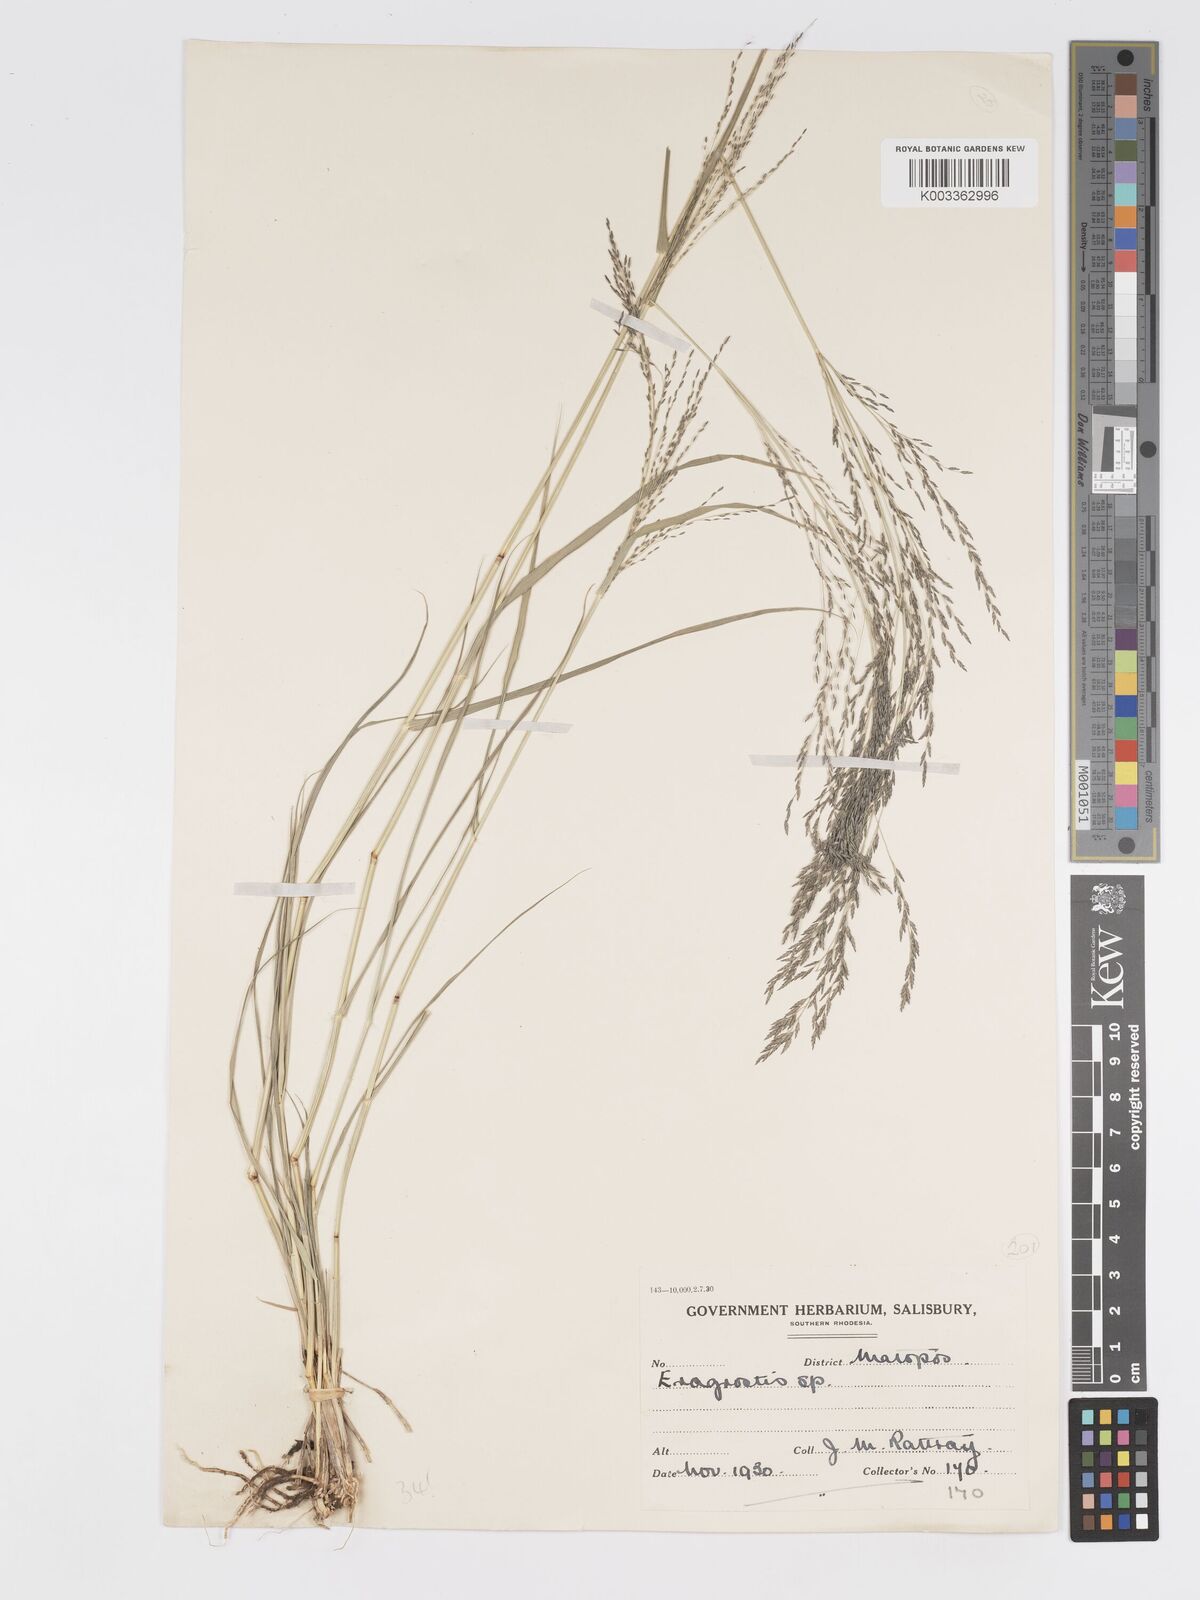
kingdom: Plantae
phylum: Tracheophyta
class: Liliopsida
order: Poales
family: Poaceae
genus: Eragrostis
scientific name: Eragrostis cylindriflora
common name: Cylinderflower lovegrass
